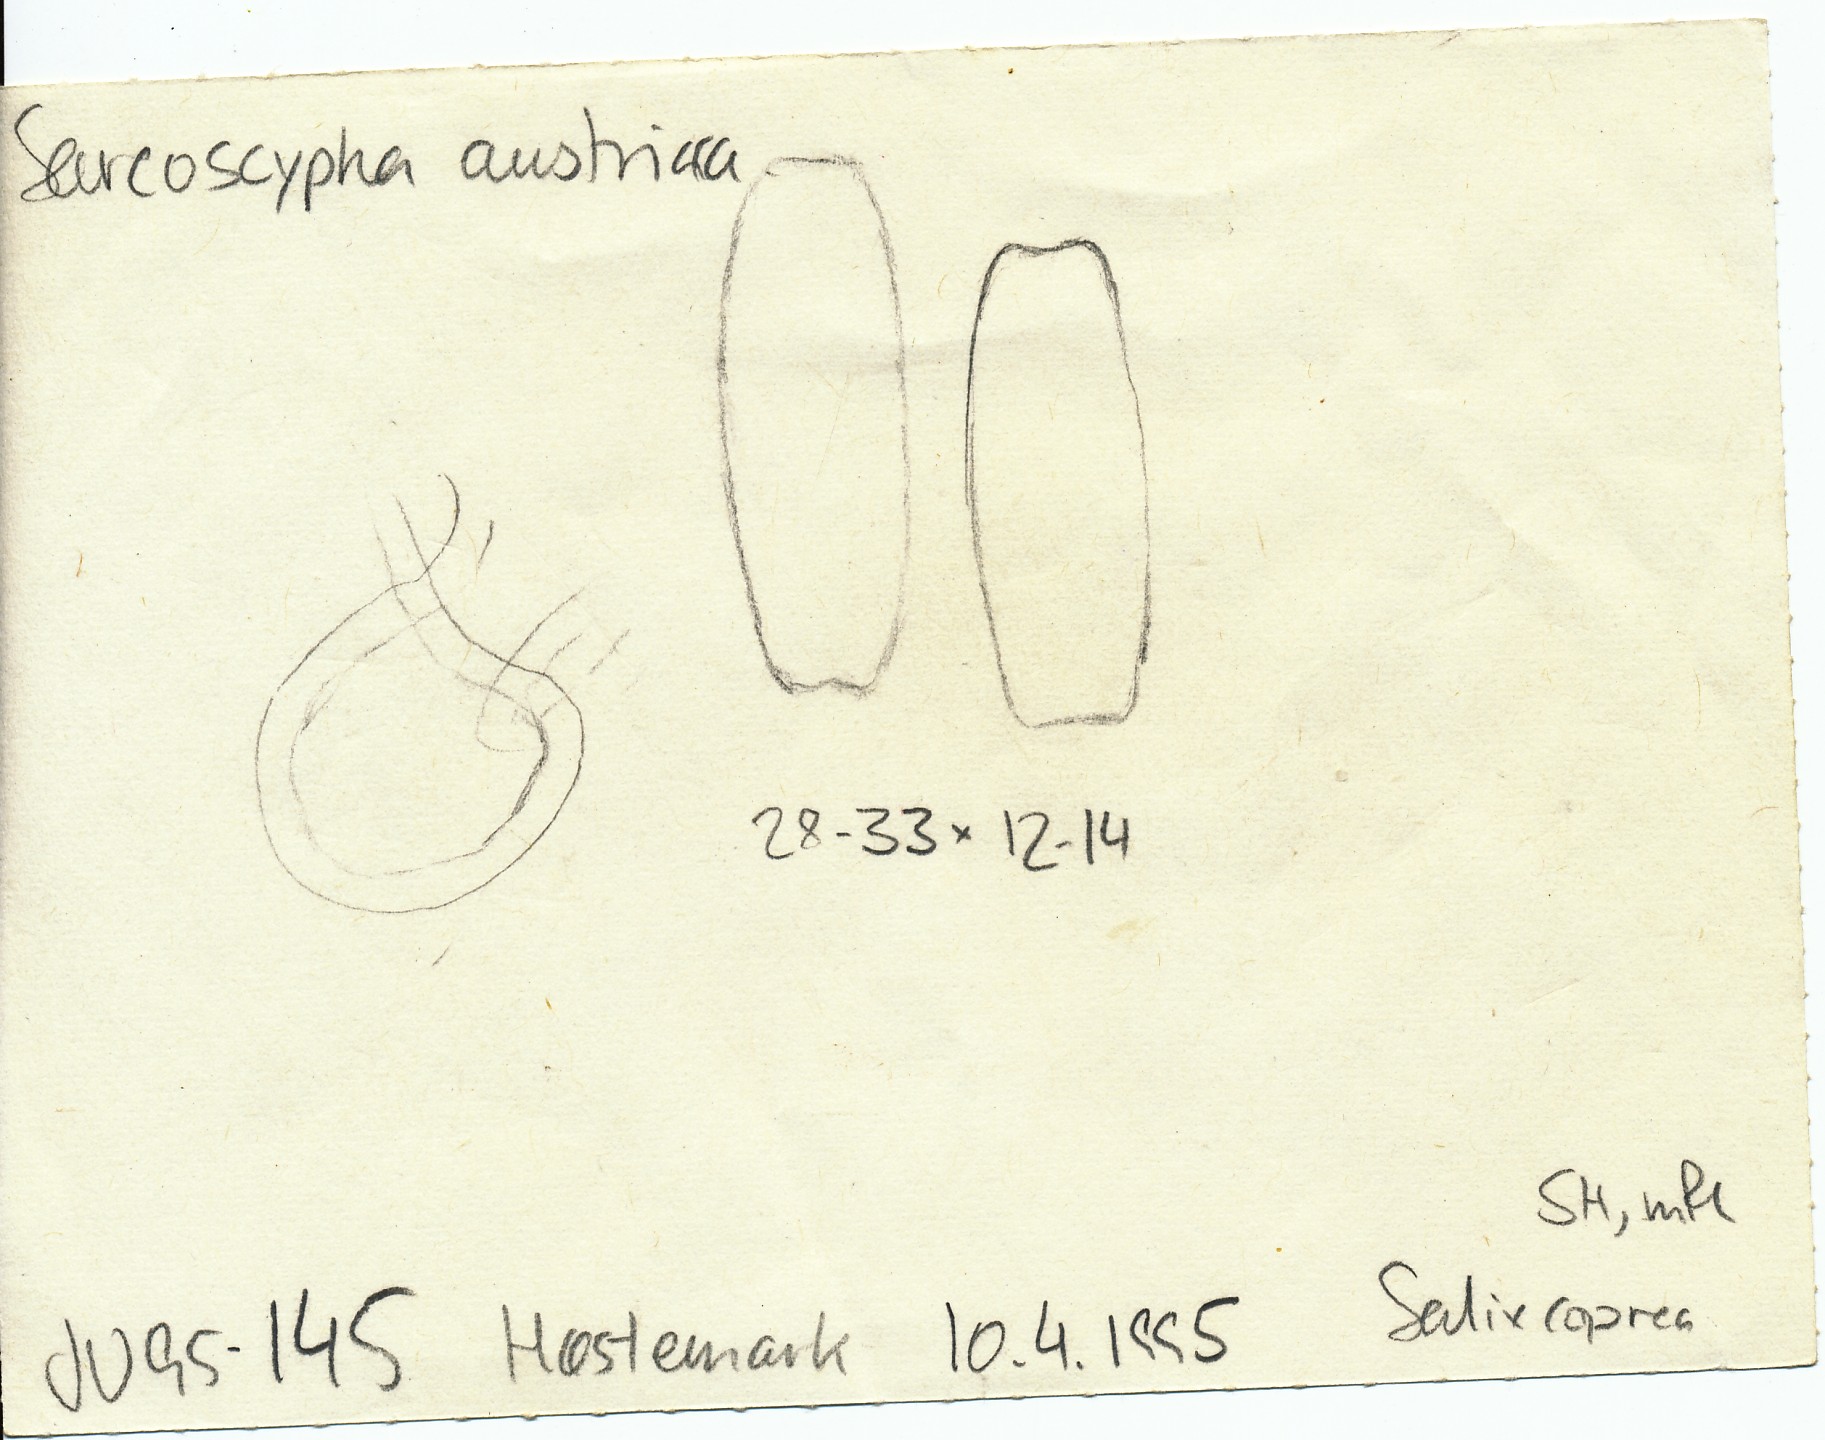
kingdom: Fungi
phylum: Ascomycota
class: Pezizomycetes
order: Pezizales
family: Sarcoscyphaceae
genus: Sarcoscypha
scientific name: Sarcoscypha austriaca
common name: krølhåret pragtbæger
